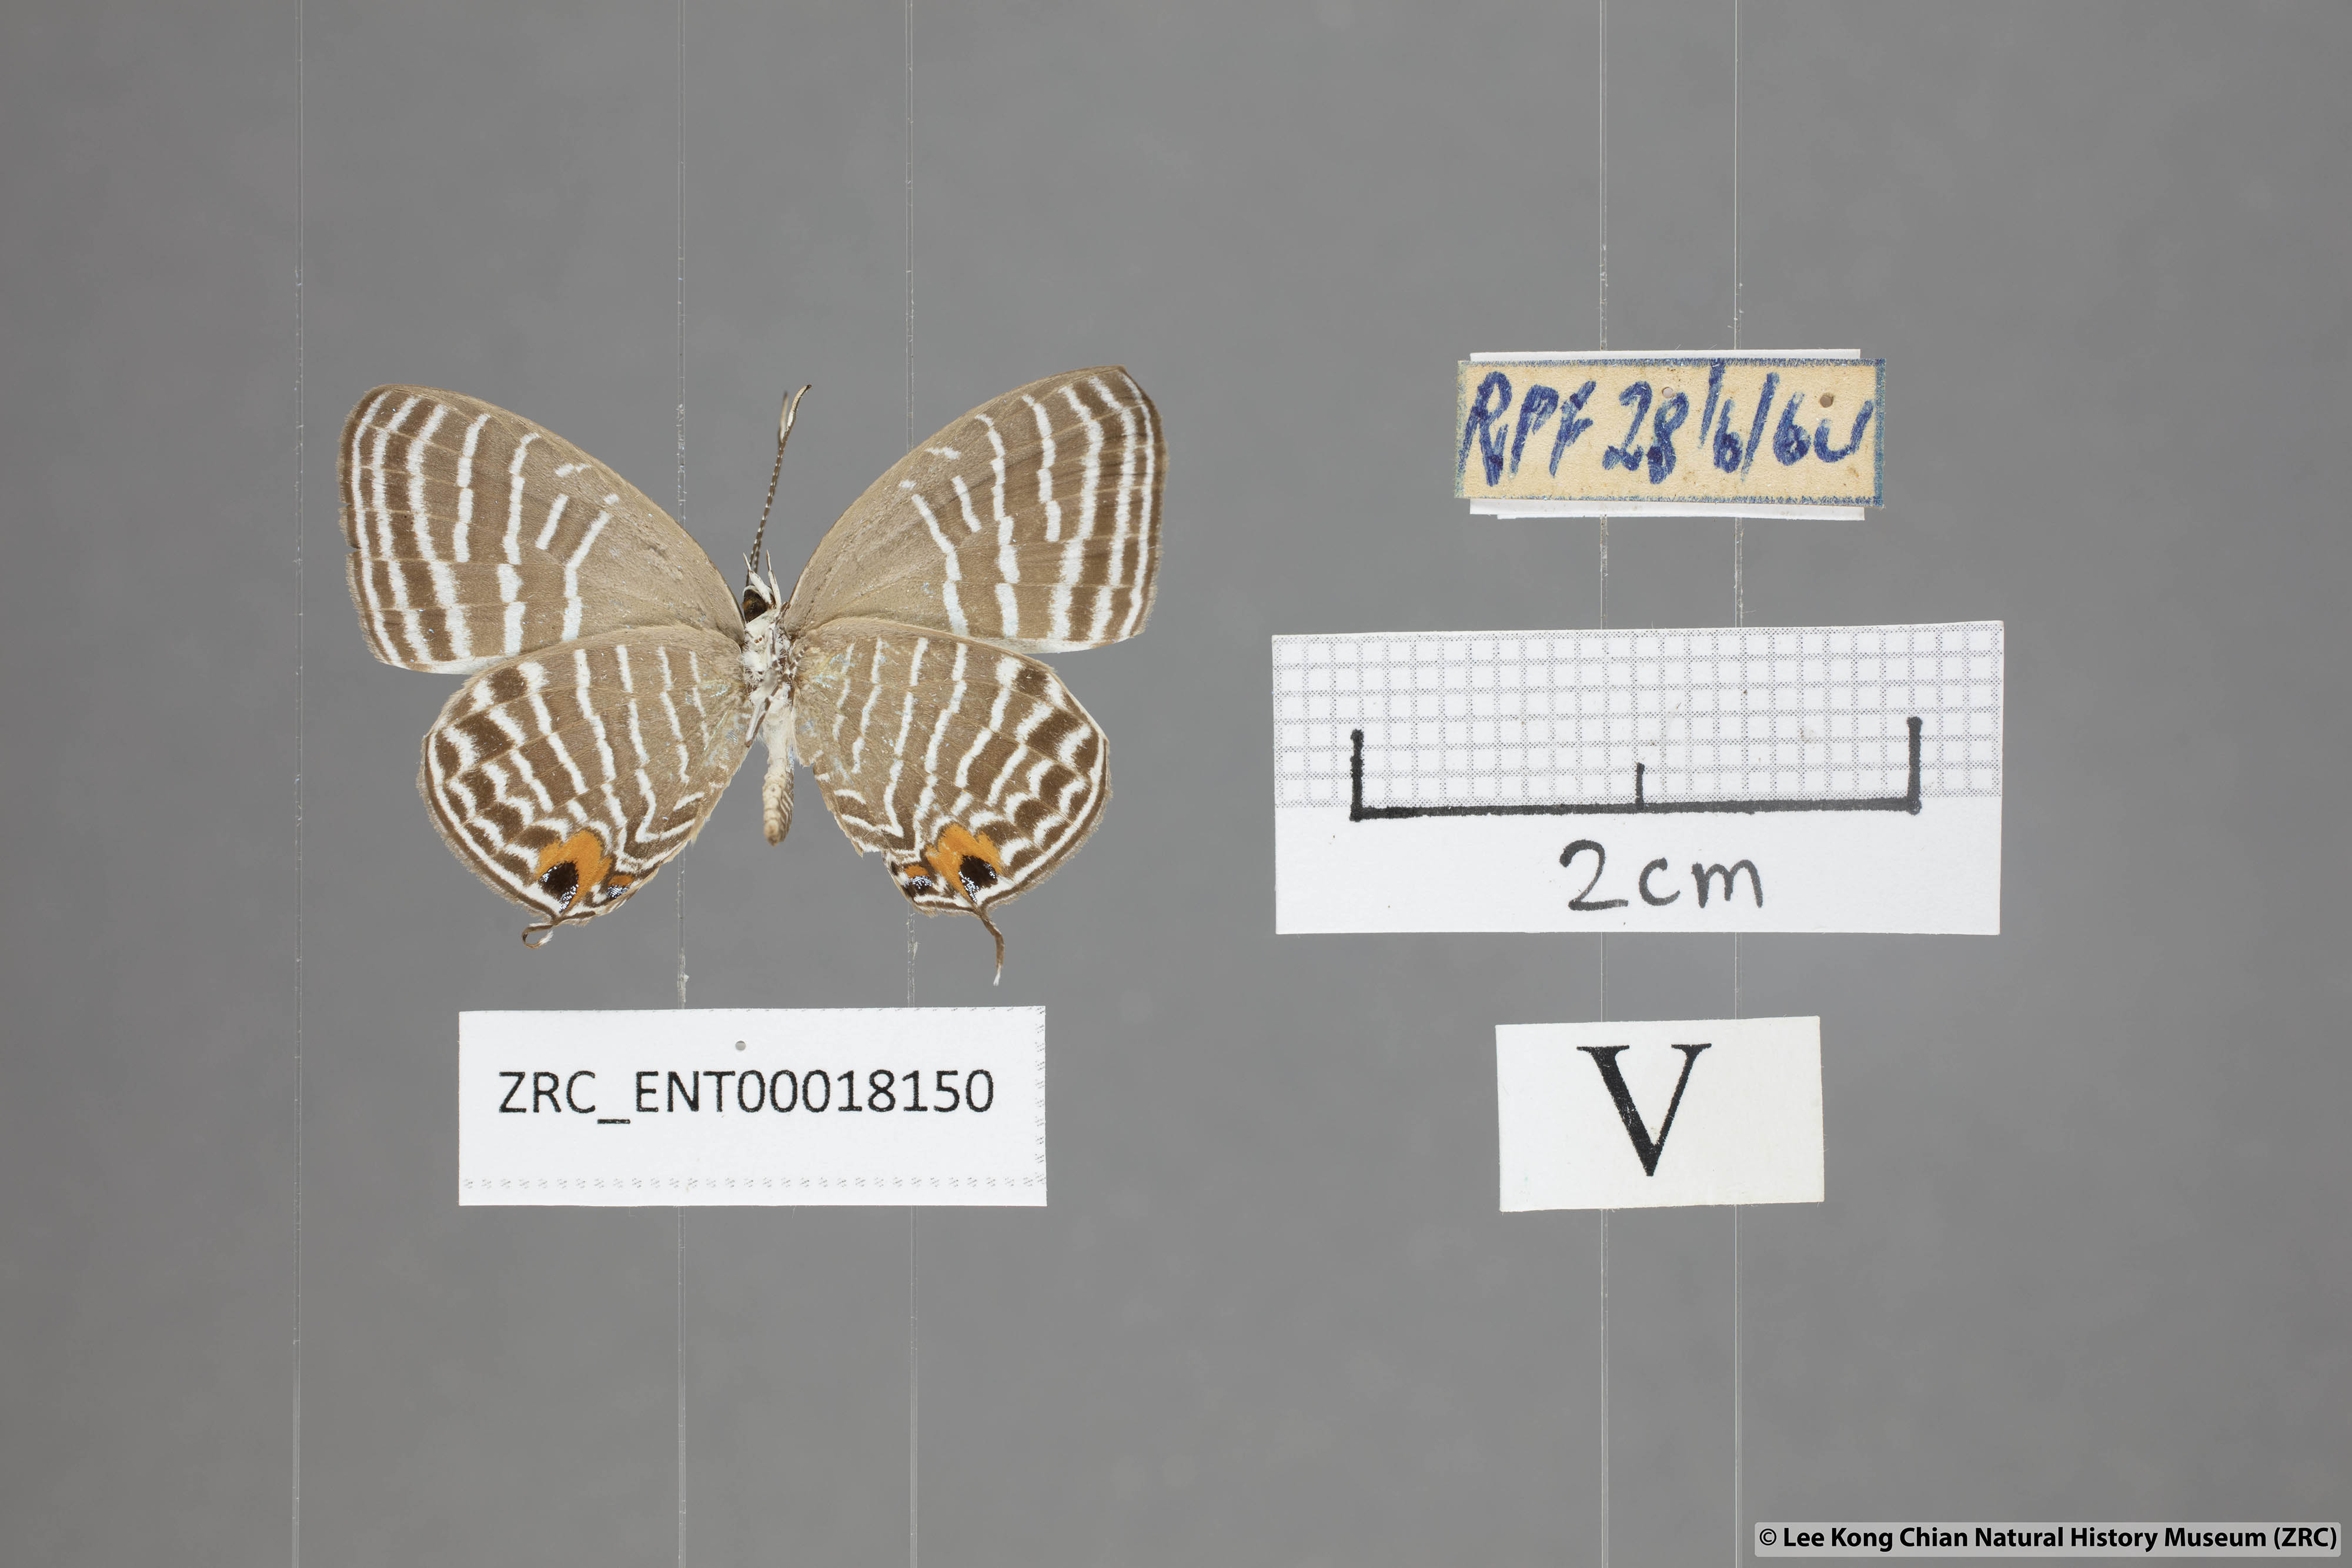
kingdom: Animalia
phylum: Arthropoda
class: Insecta
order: Lepidoptera
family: Lycaenidae
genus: Jamides
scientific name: Jamides parasaturata
